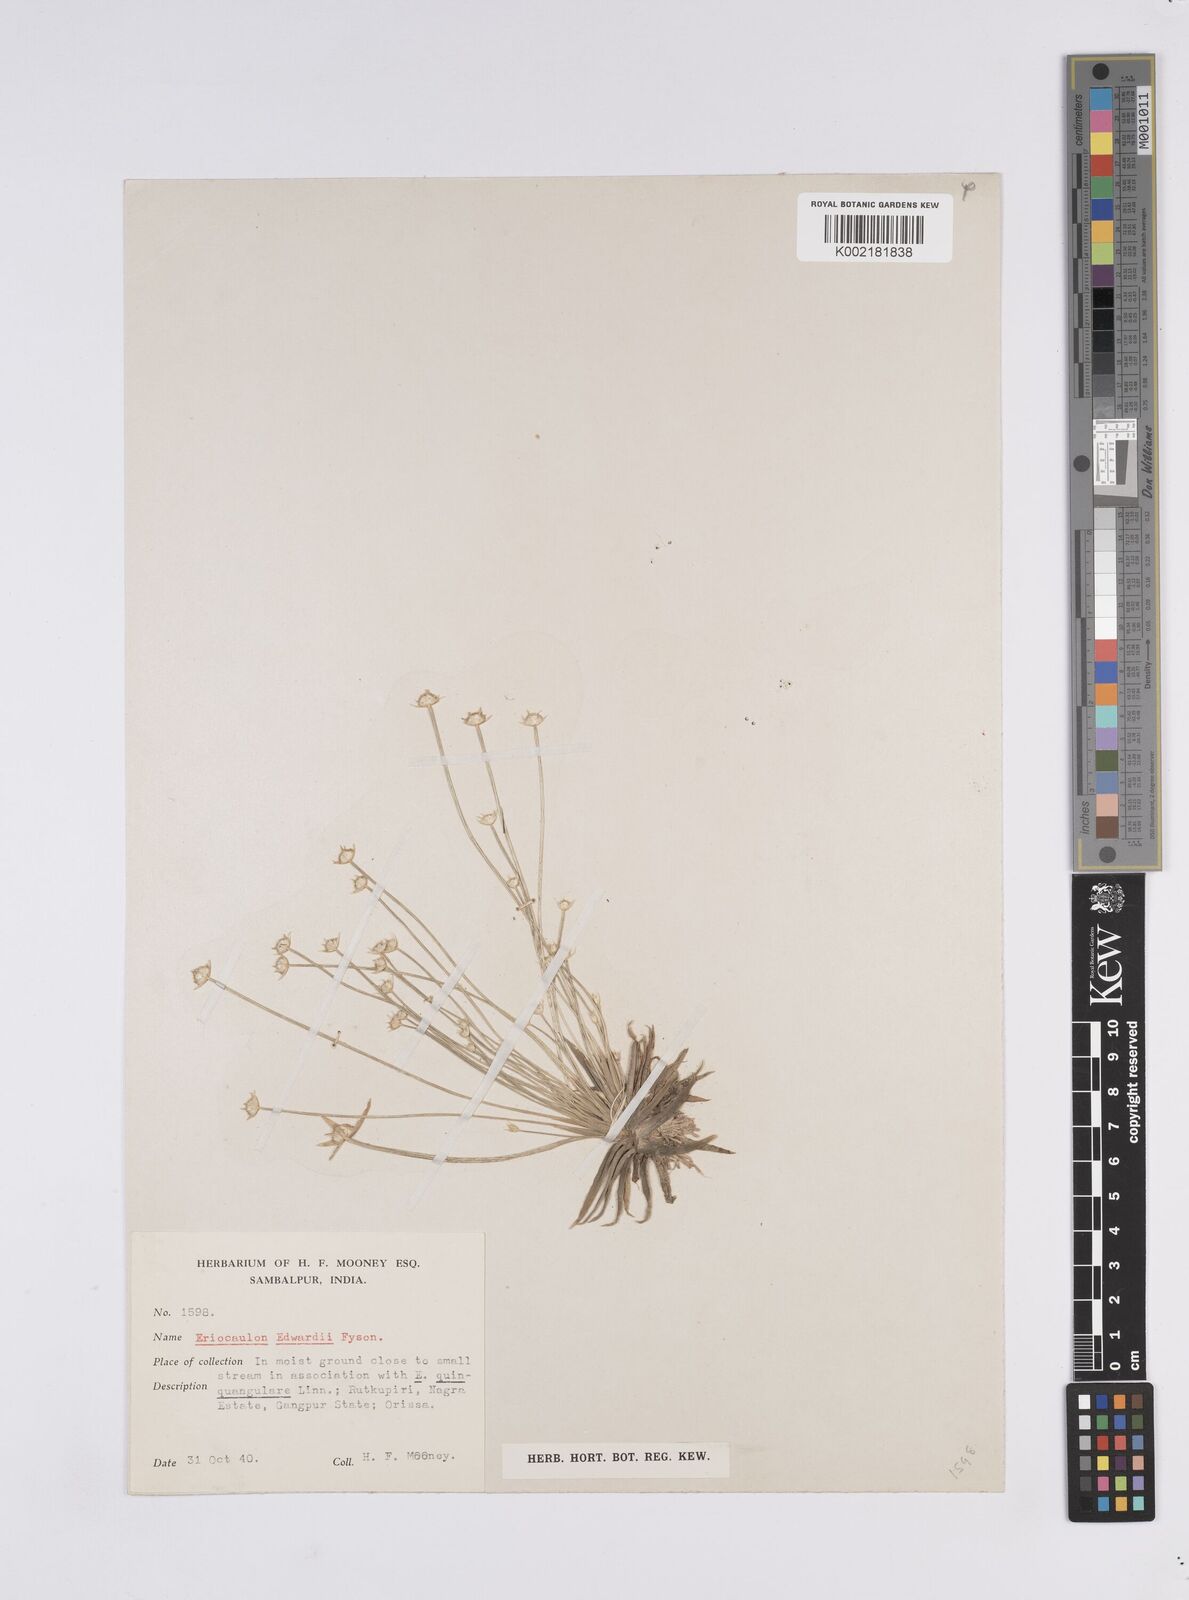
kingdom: Plantae
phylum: Tracheophyta
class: Liliopsida
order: Poales
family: Eriocaulaceae
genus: Eriocaulon
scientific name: Eriocaulon edwardii
